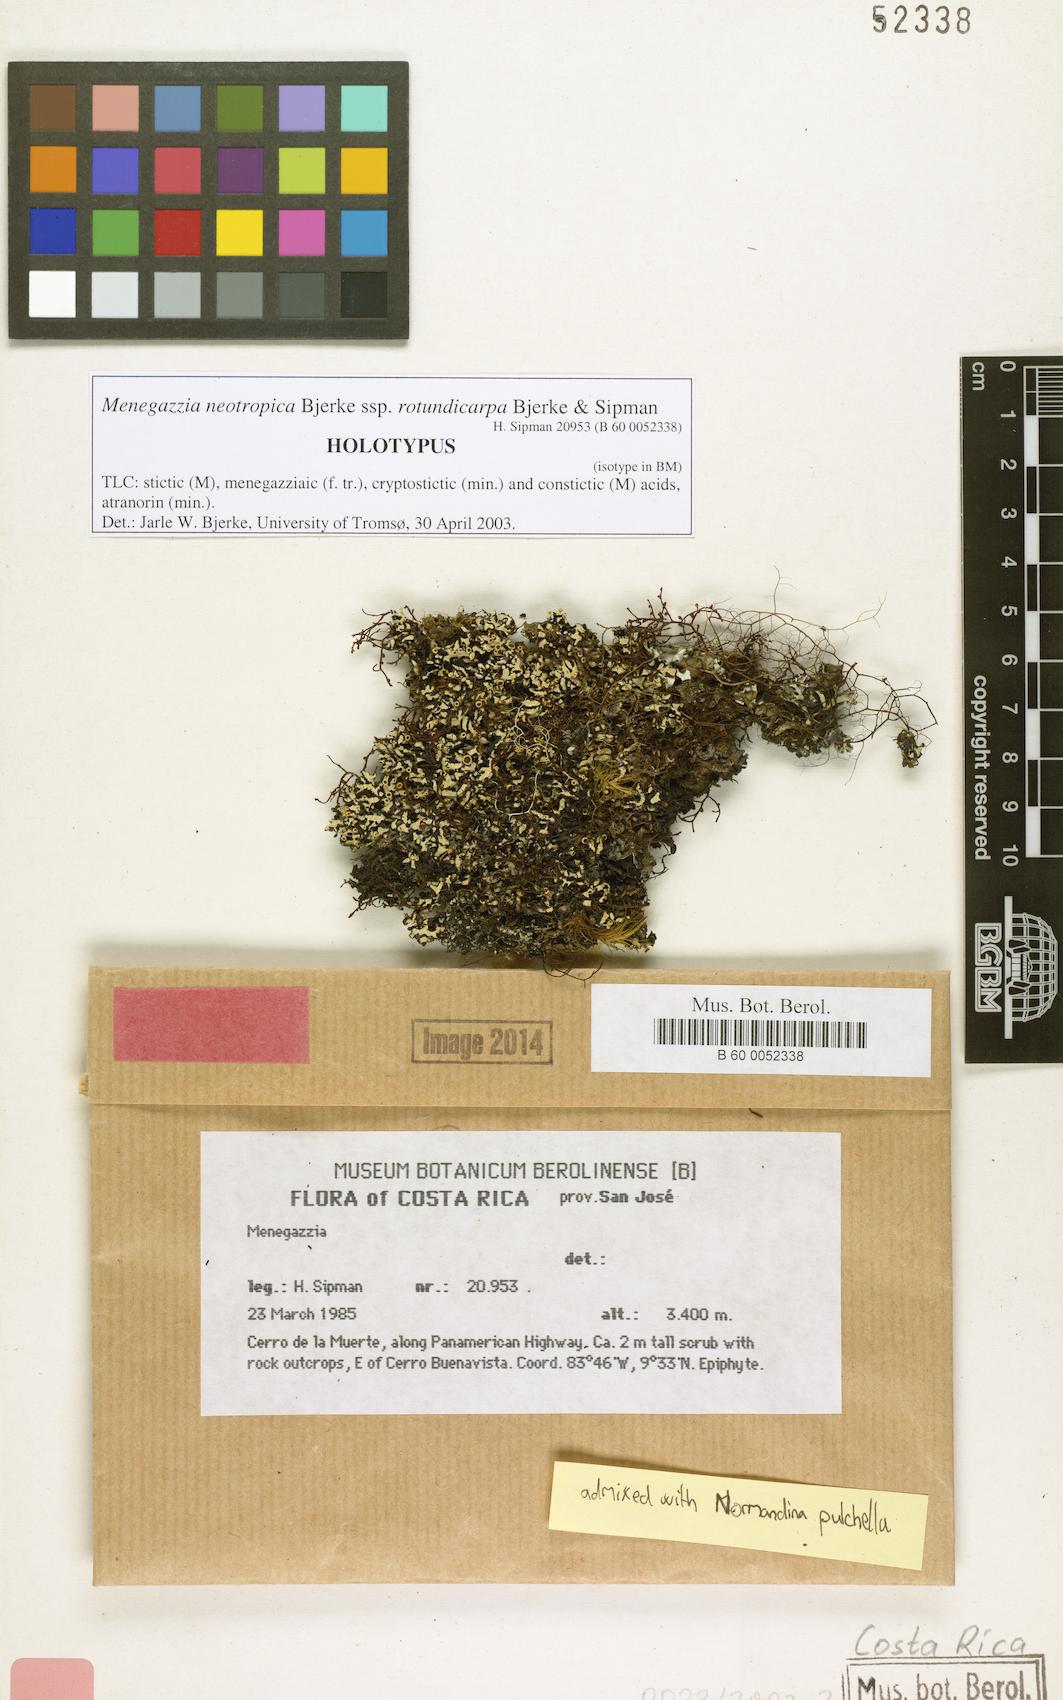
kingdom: Fungi
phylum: Ascomycota
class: Lecanoromycetes
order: Lecanorales
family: Parmeliaceae
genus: Menegazzia
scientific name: Menegazzia neotropica
